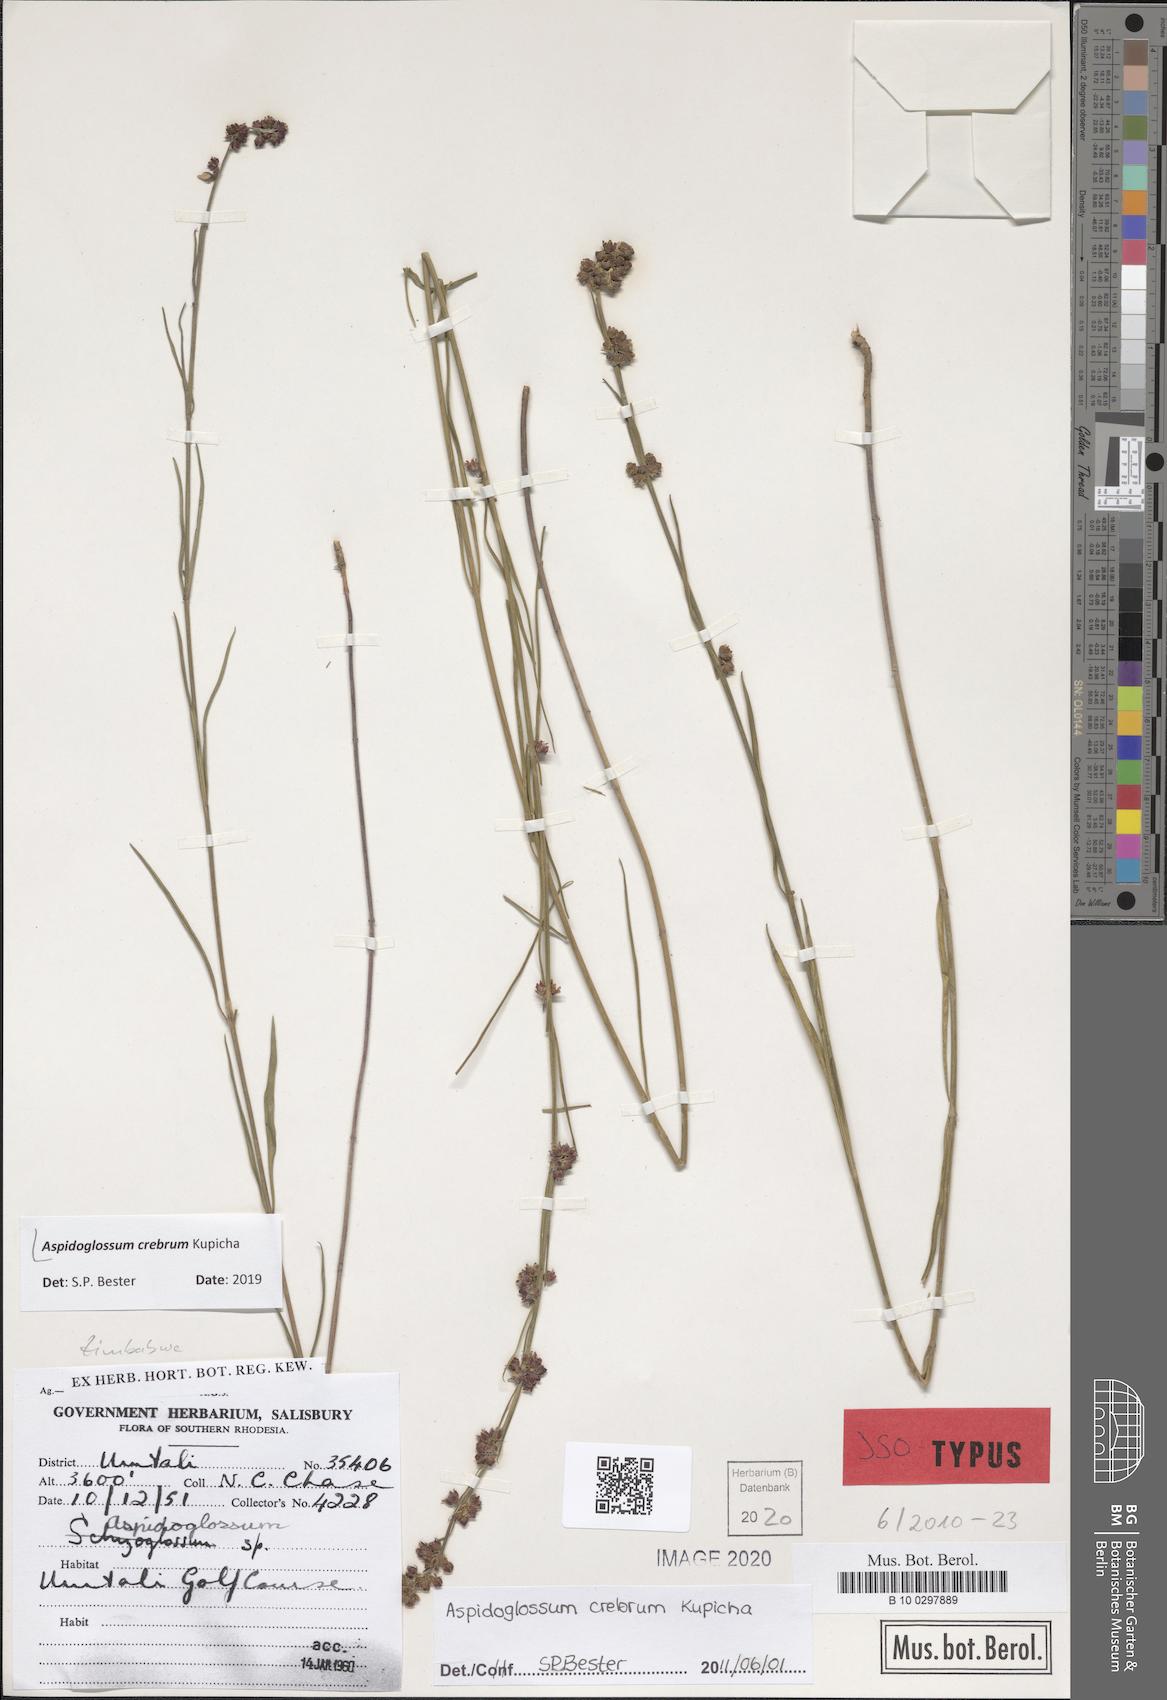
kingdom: Plantae
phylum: Tracheophyta
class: Magnoliopsida
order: Gentianales
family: Apocynaceae
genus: Aspidoglossum
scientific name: Aspidoglossum
